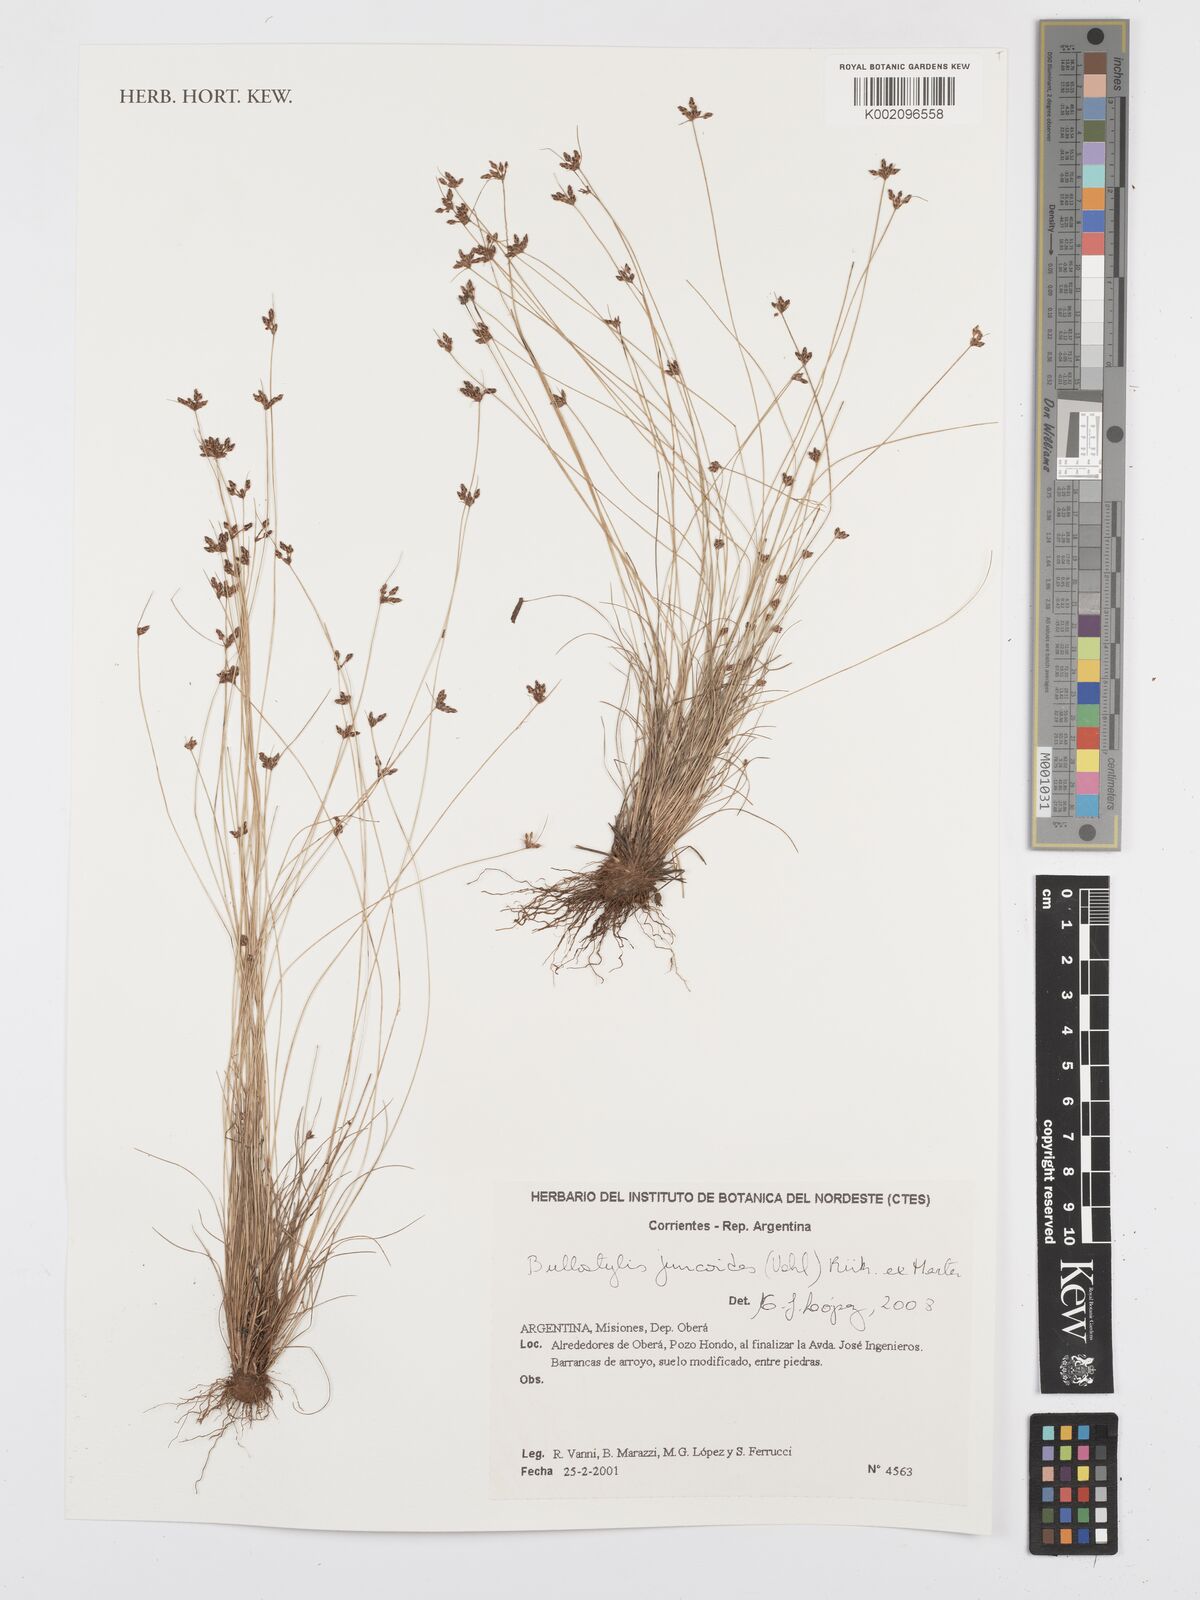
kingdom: Plantae
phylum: Tracheophyta
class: Liliopsida
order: Poales
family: Cyperaceae
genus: Bulbostylis
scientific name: Bulbostylis juncoides
